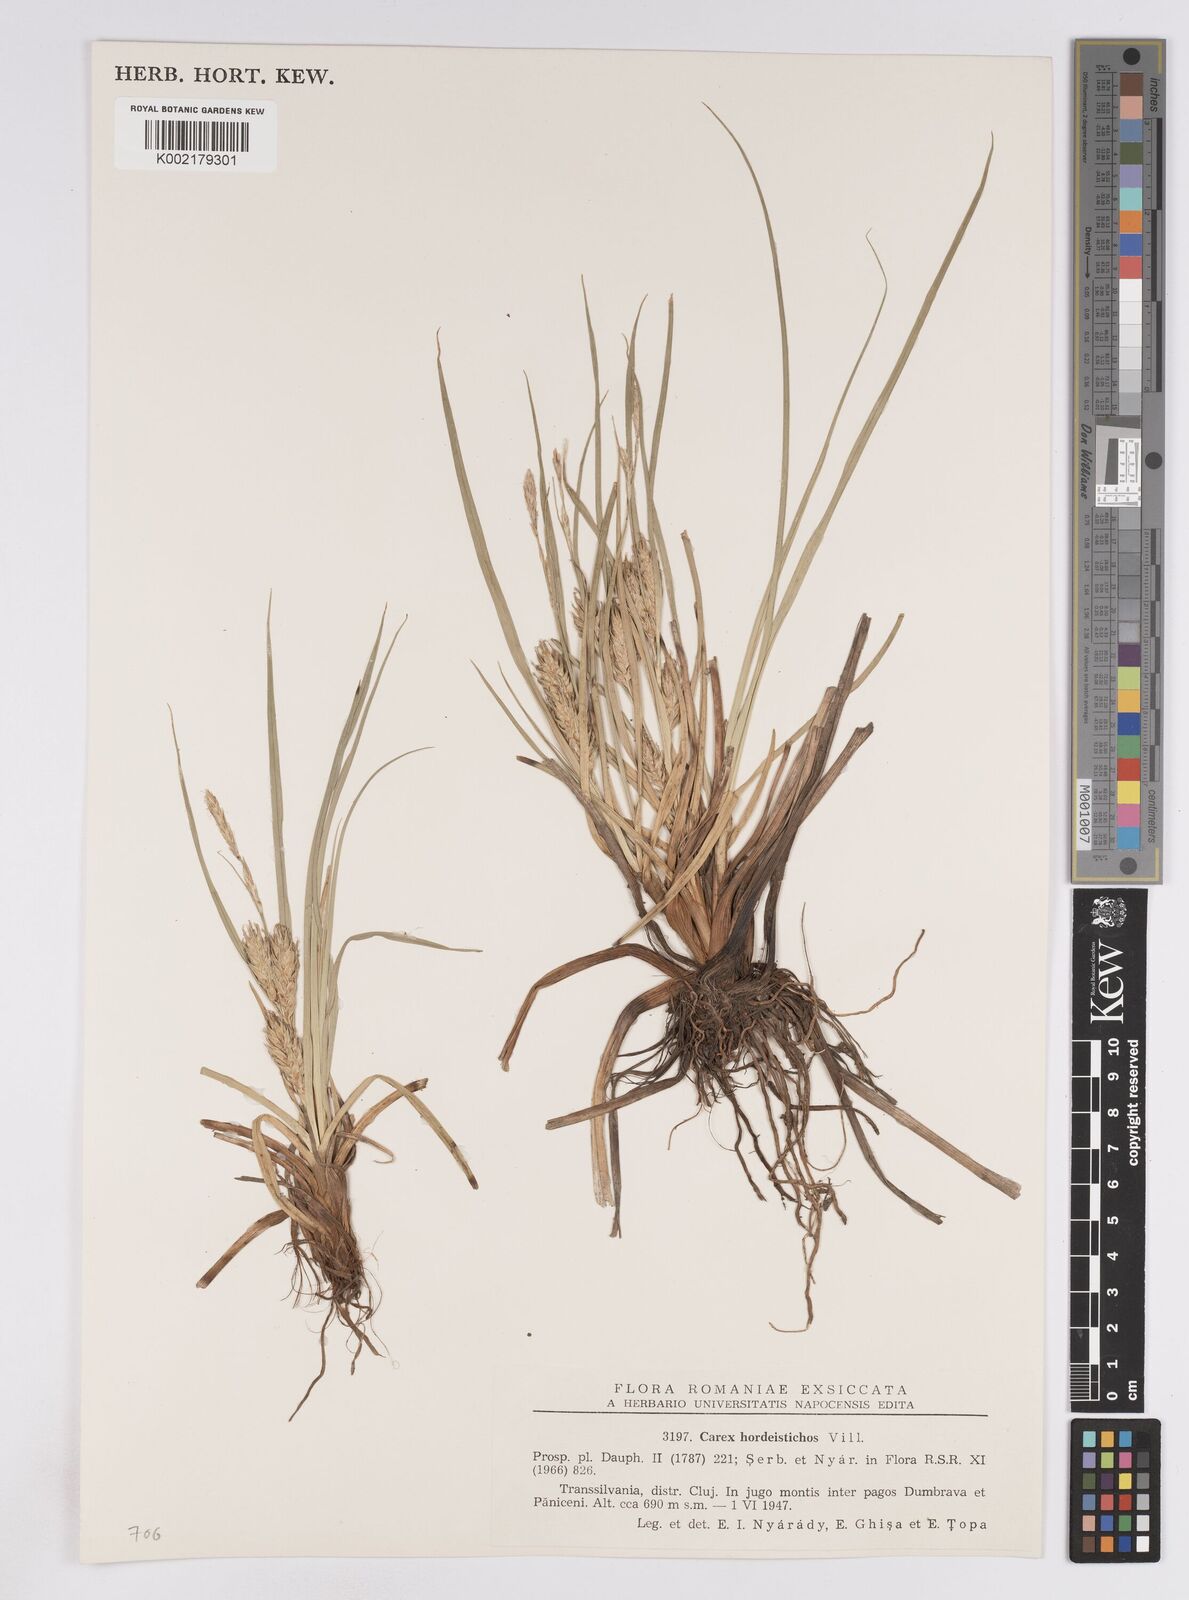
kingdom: Plantae
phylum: Tracheophyta
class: Liliopsida
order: Poales
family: Cyperaceae
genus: Carex
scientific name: Carex hordeistichos
